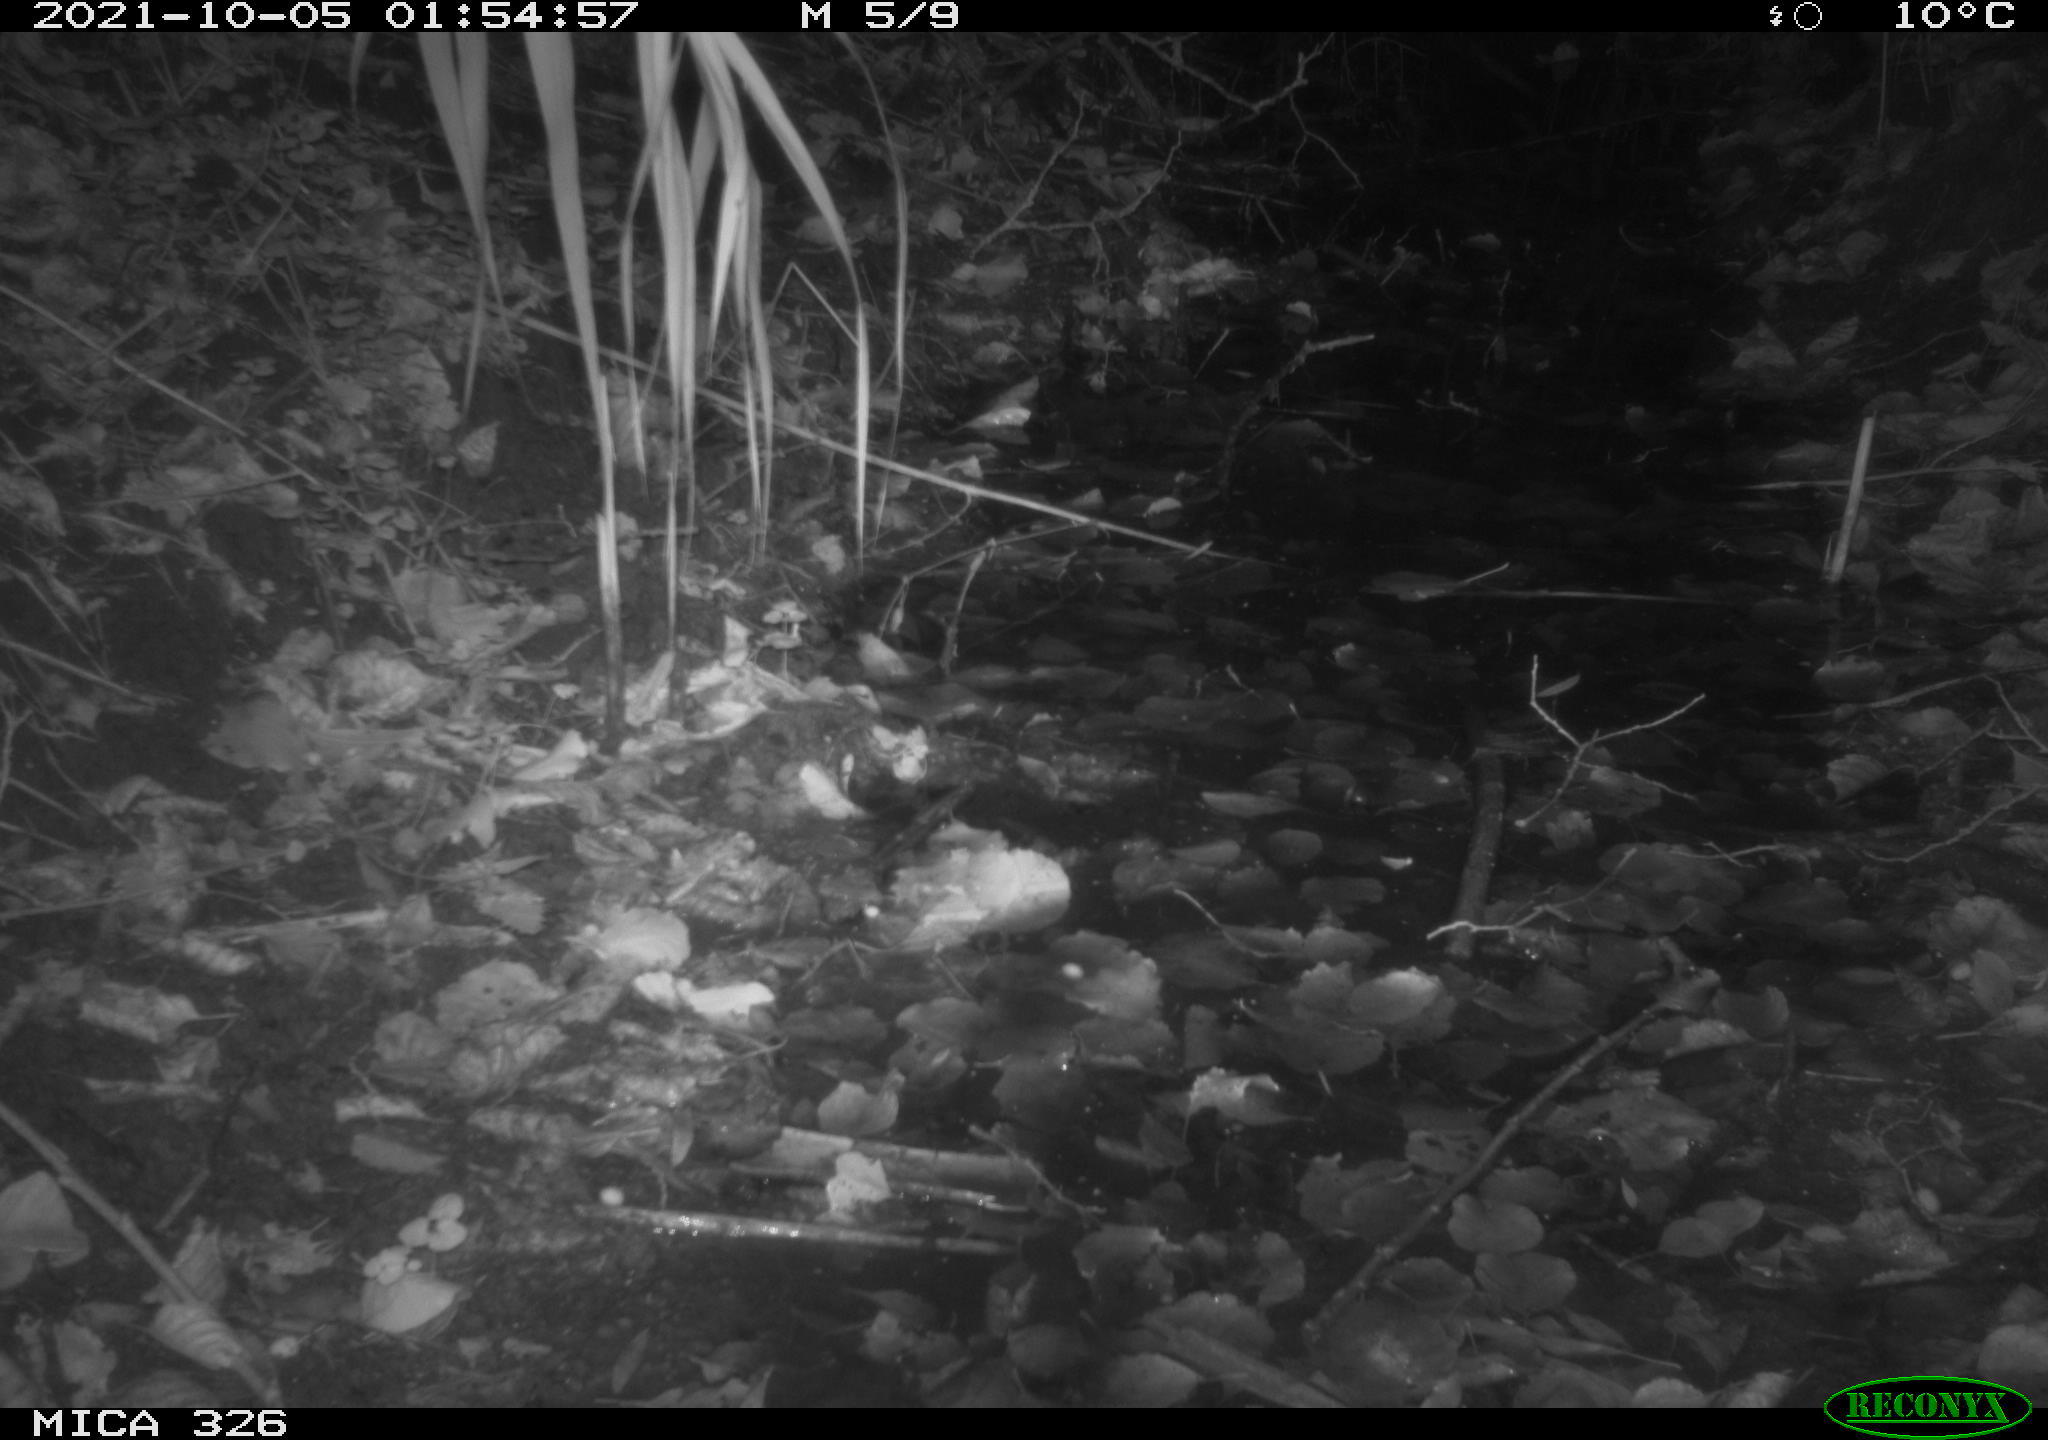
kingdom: Animalia
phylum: Chordata
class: Mammalia
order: Rodentia
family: Myocastoridae
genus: Myocastor
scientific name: Myocastor coypus
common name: Coypu
